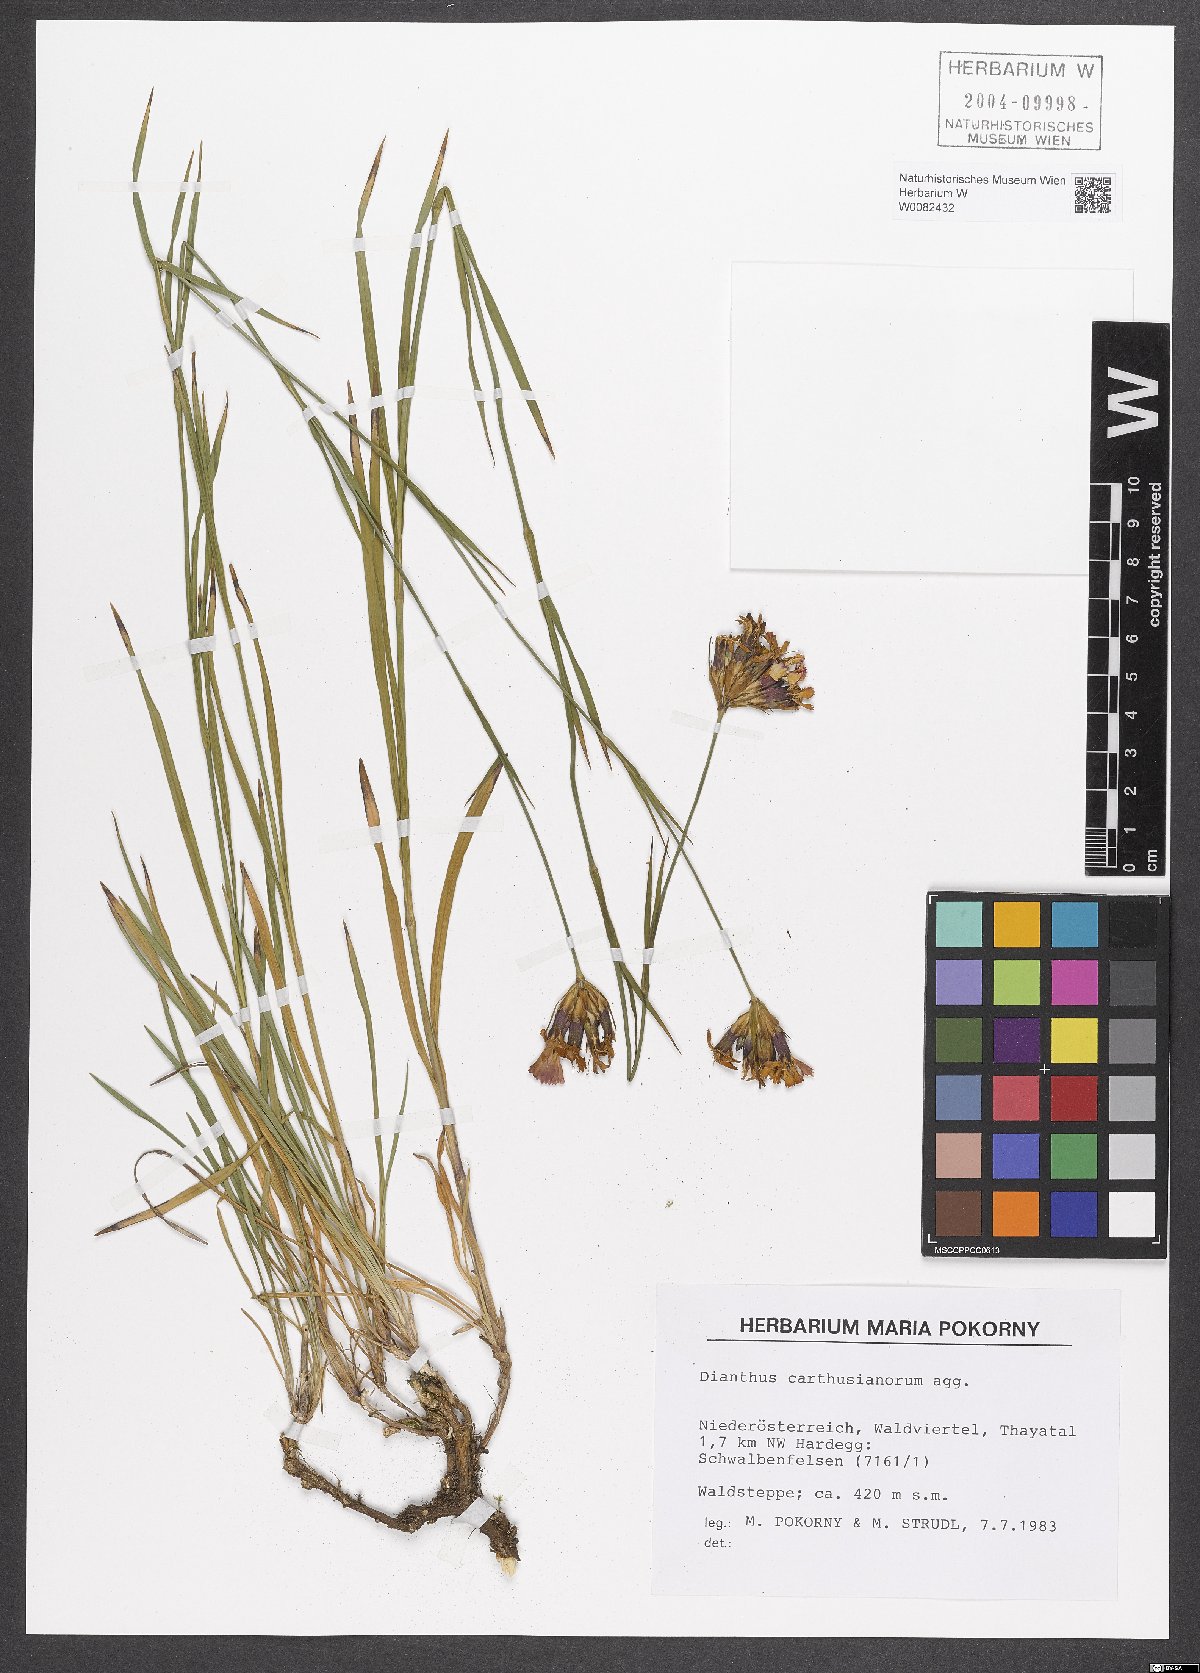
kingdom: Plantae
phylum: Tracheophyta
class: Magnoliopsida
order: Caryophyllales
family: Caryophyllaceae
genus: Dianthus
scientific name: Dianthus carthusianorum
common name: Carthusian pink
